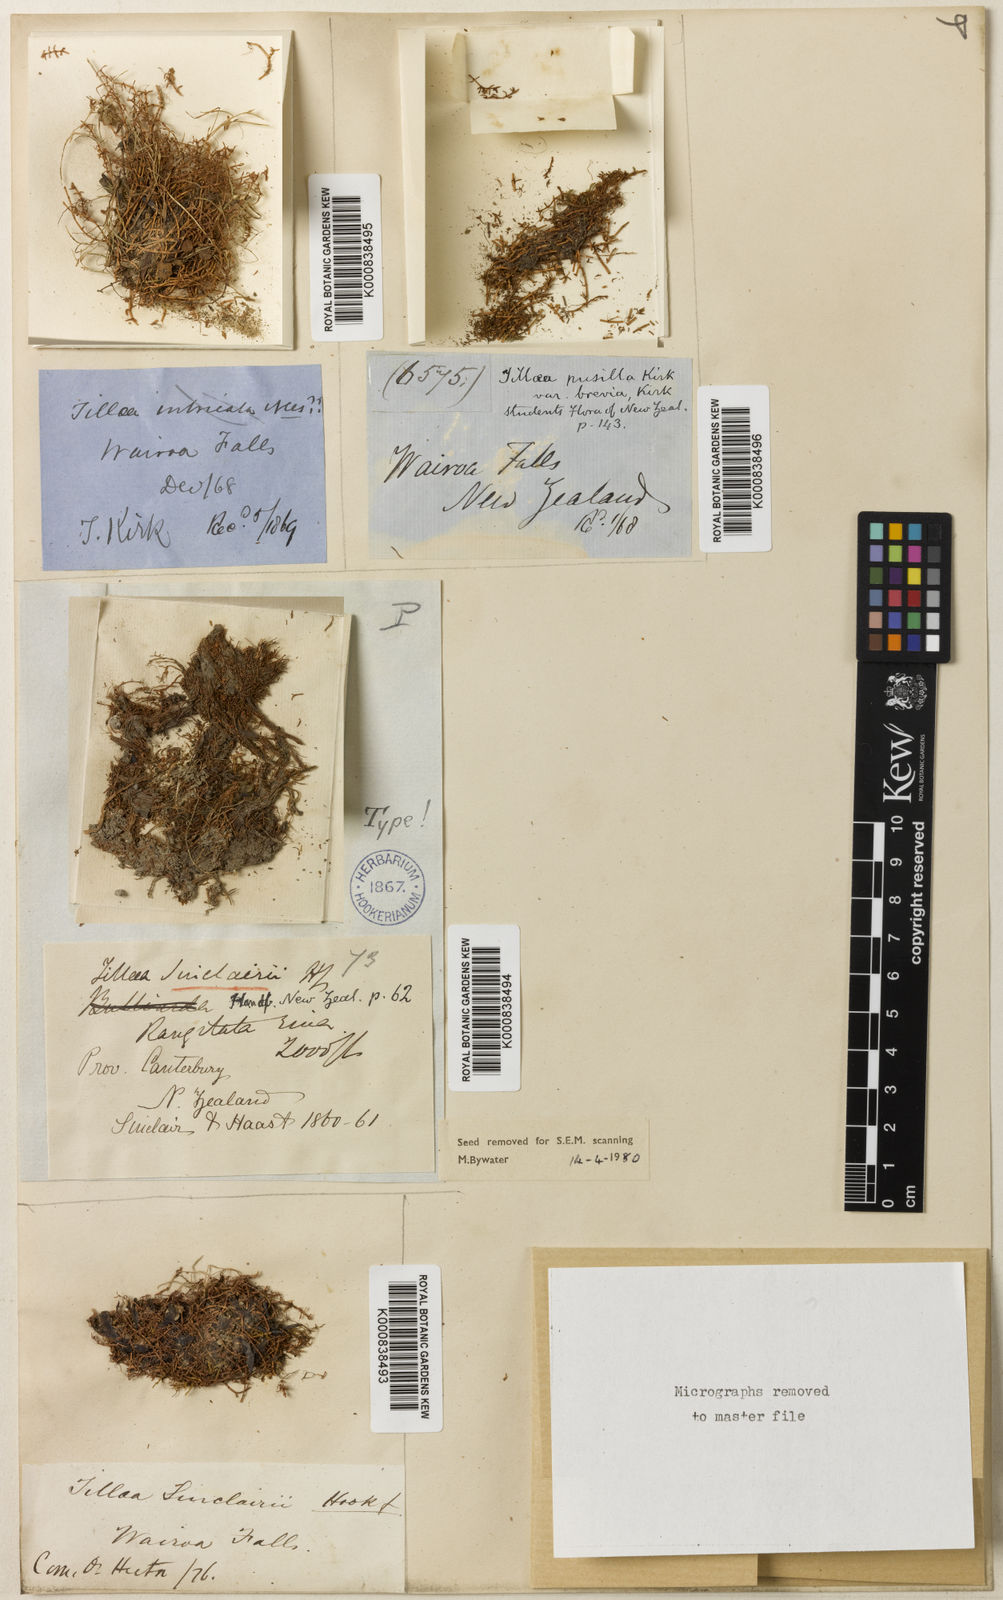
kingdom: Plantae
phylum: Tracheophyta
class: Magnoliopsida
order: Saxifragales
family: Crassulaceae
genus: Crassula
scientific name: Crassula sinclairii
